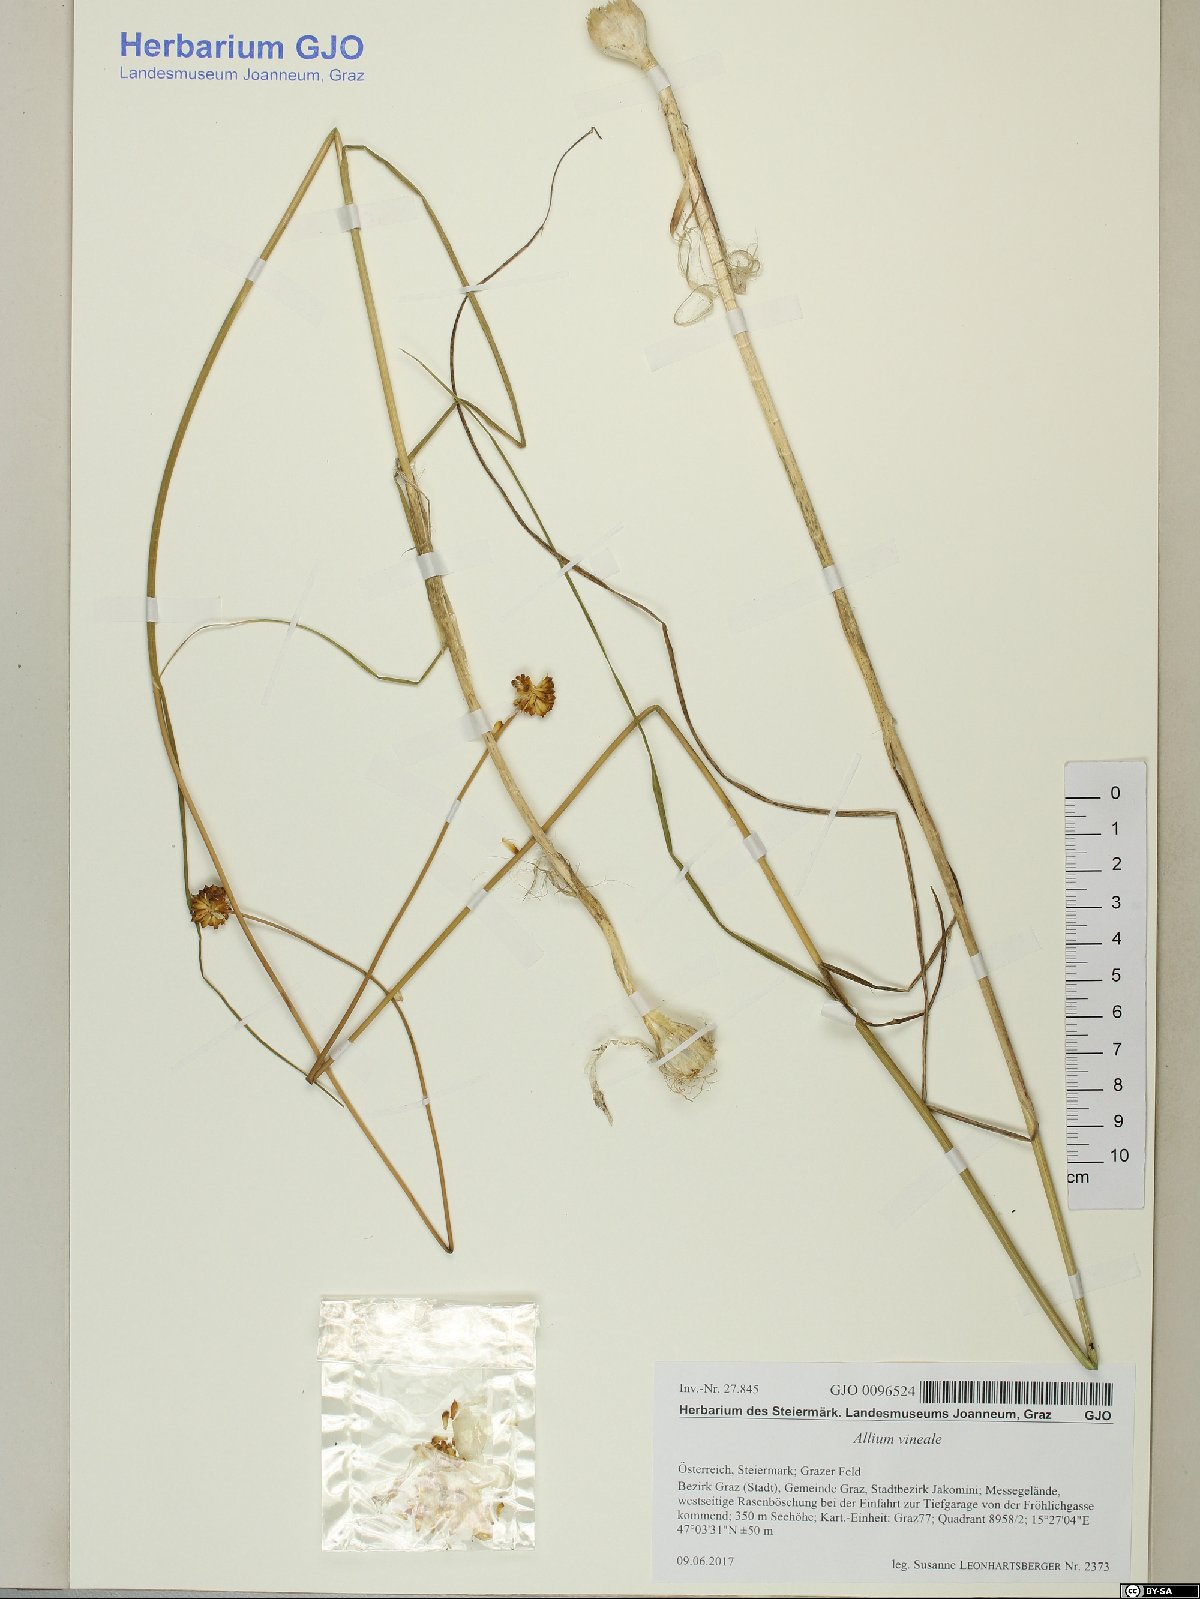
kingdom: Plantae
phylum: Tracheophyta
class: Liliopsida
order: Asparagales
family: Amaryllidaceae
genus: Allium
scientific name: Allium vineale
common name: Crow garlic
